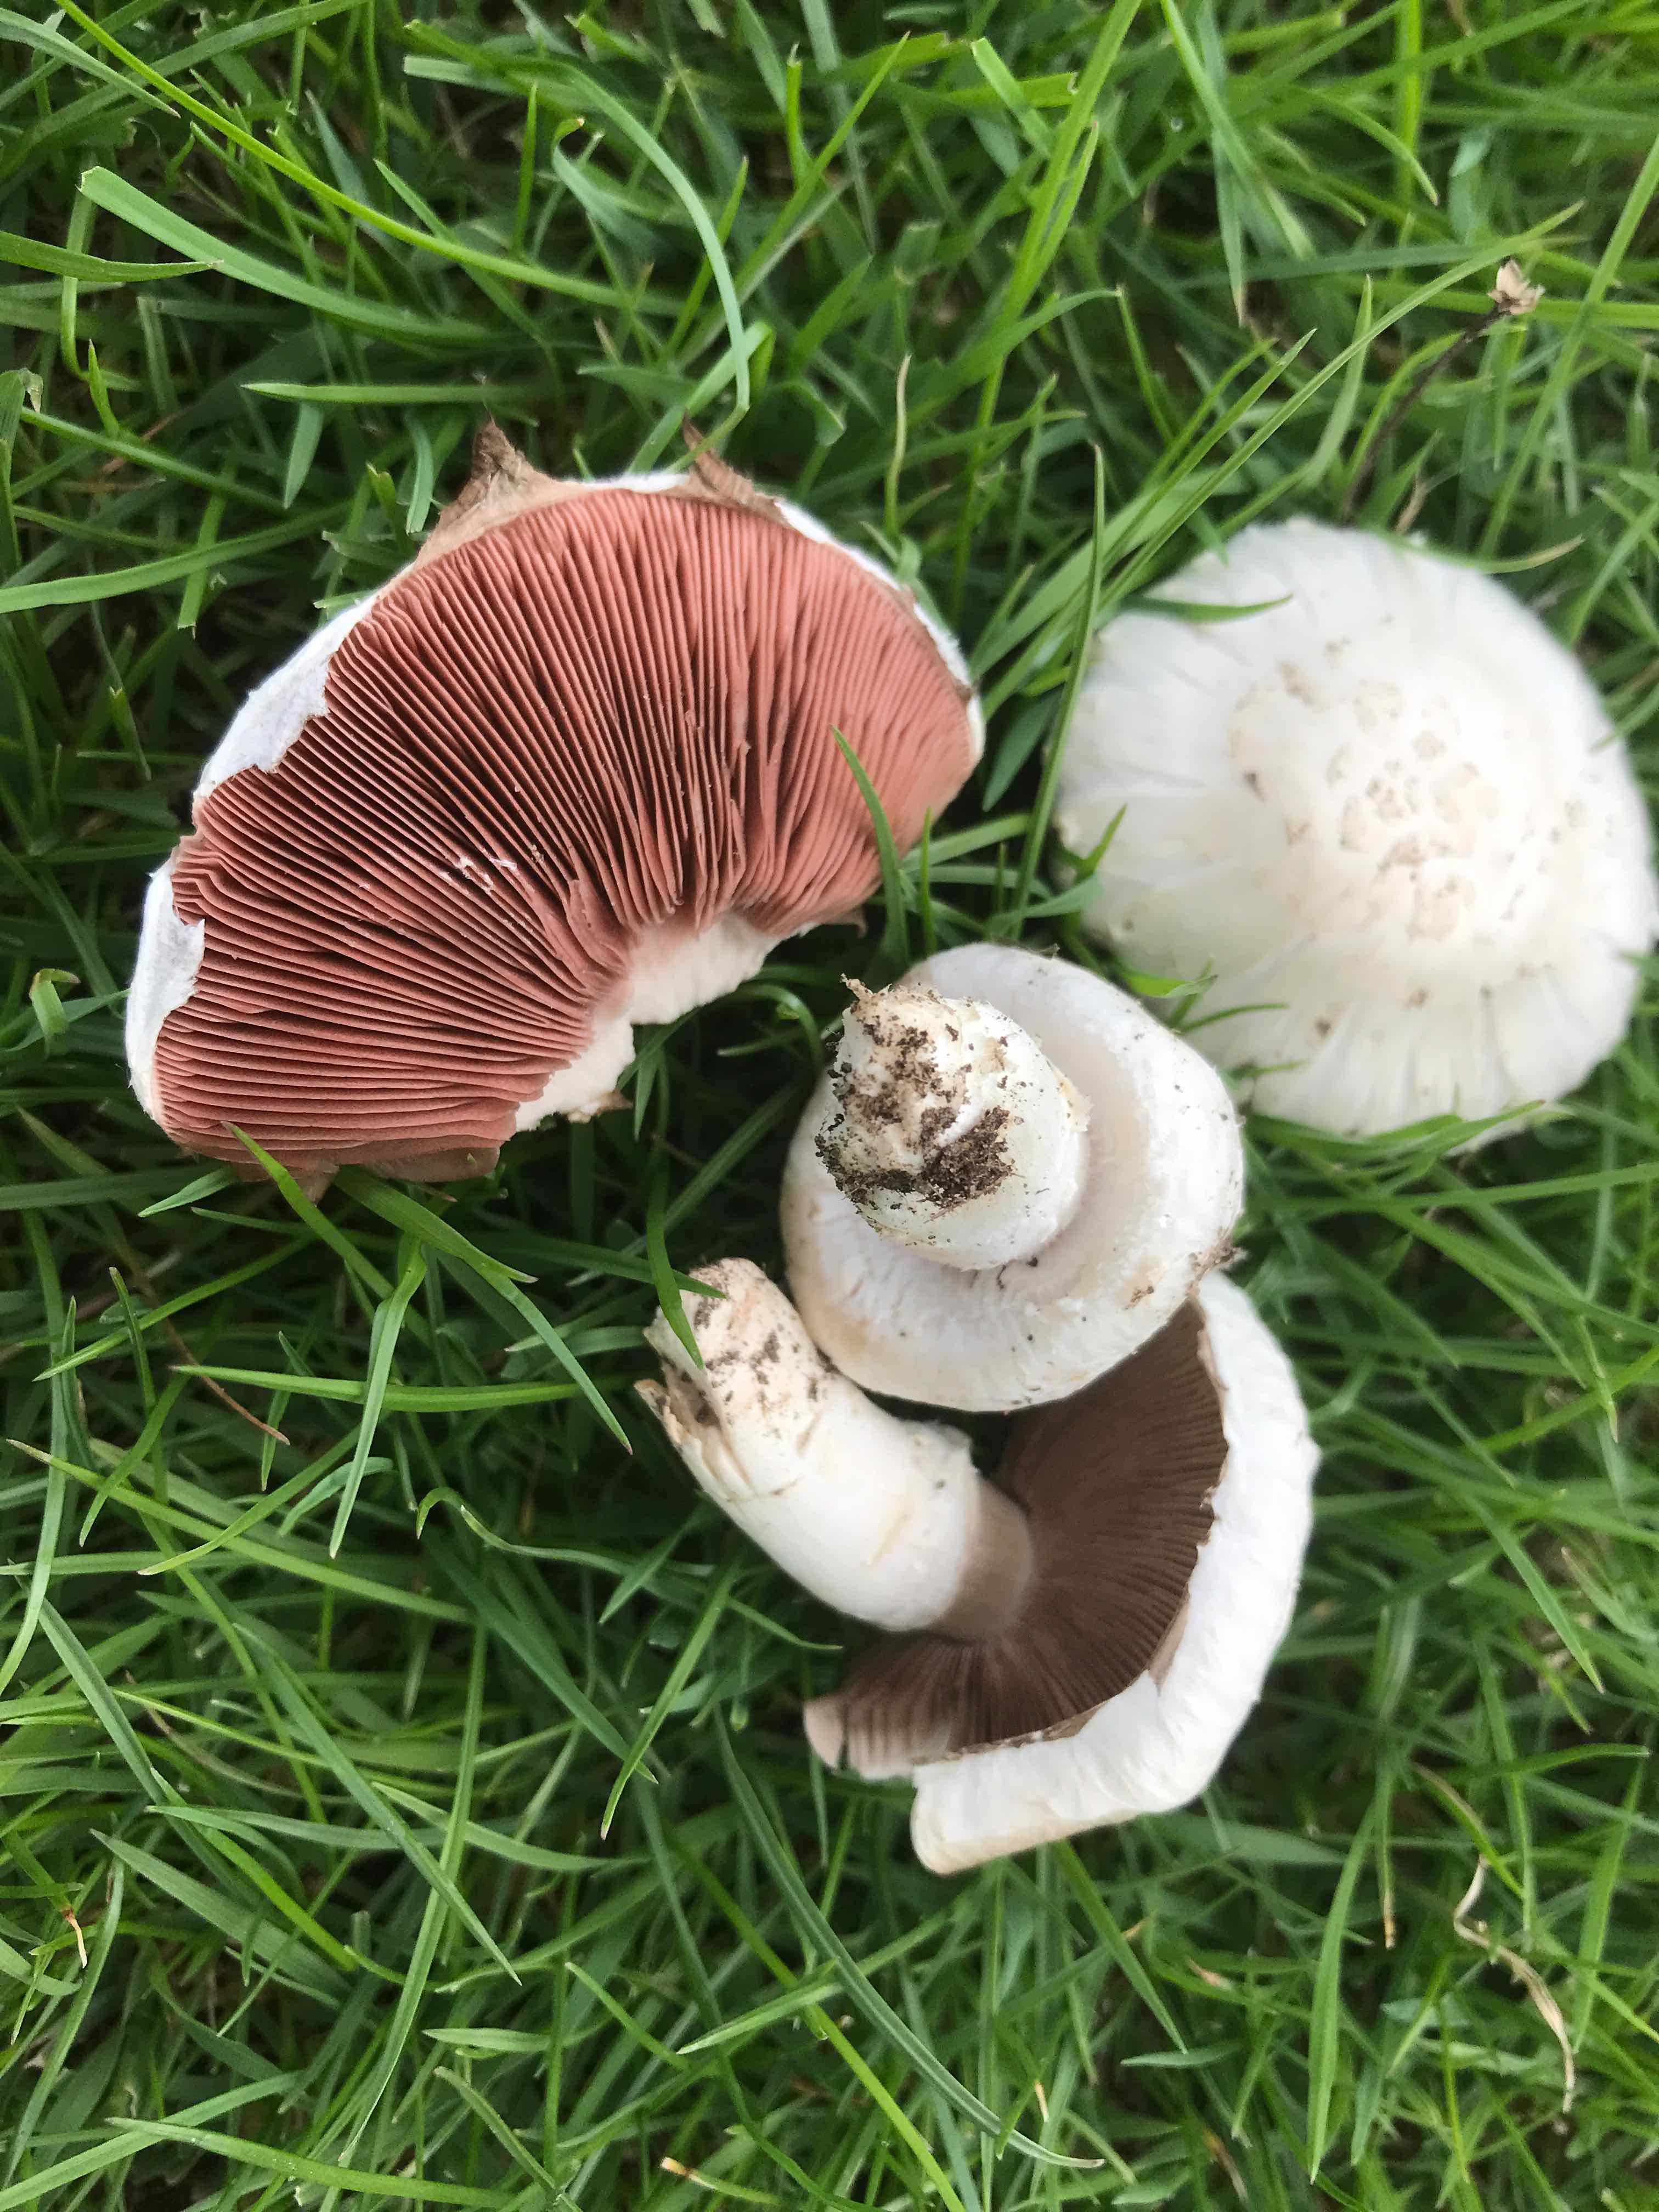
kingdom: Fungi
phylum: Basidiomycota
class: Agaricomycetes
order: Agaricales
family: Agaricaceae
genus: Agaricus
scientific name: Agaricus campestris
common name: mark-champignon
